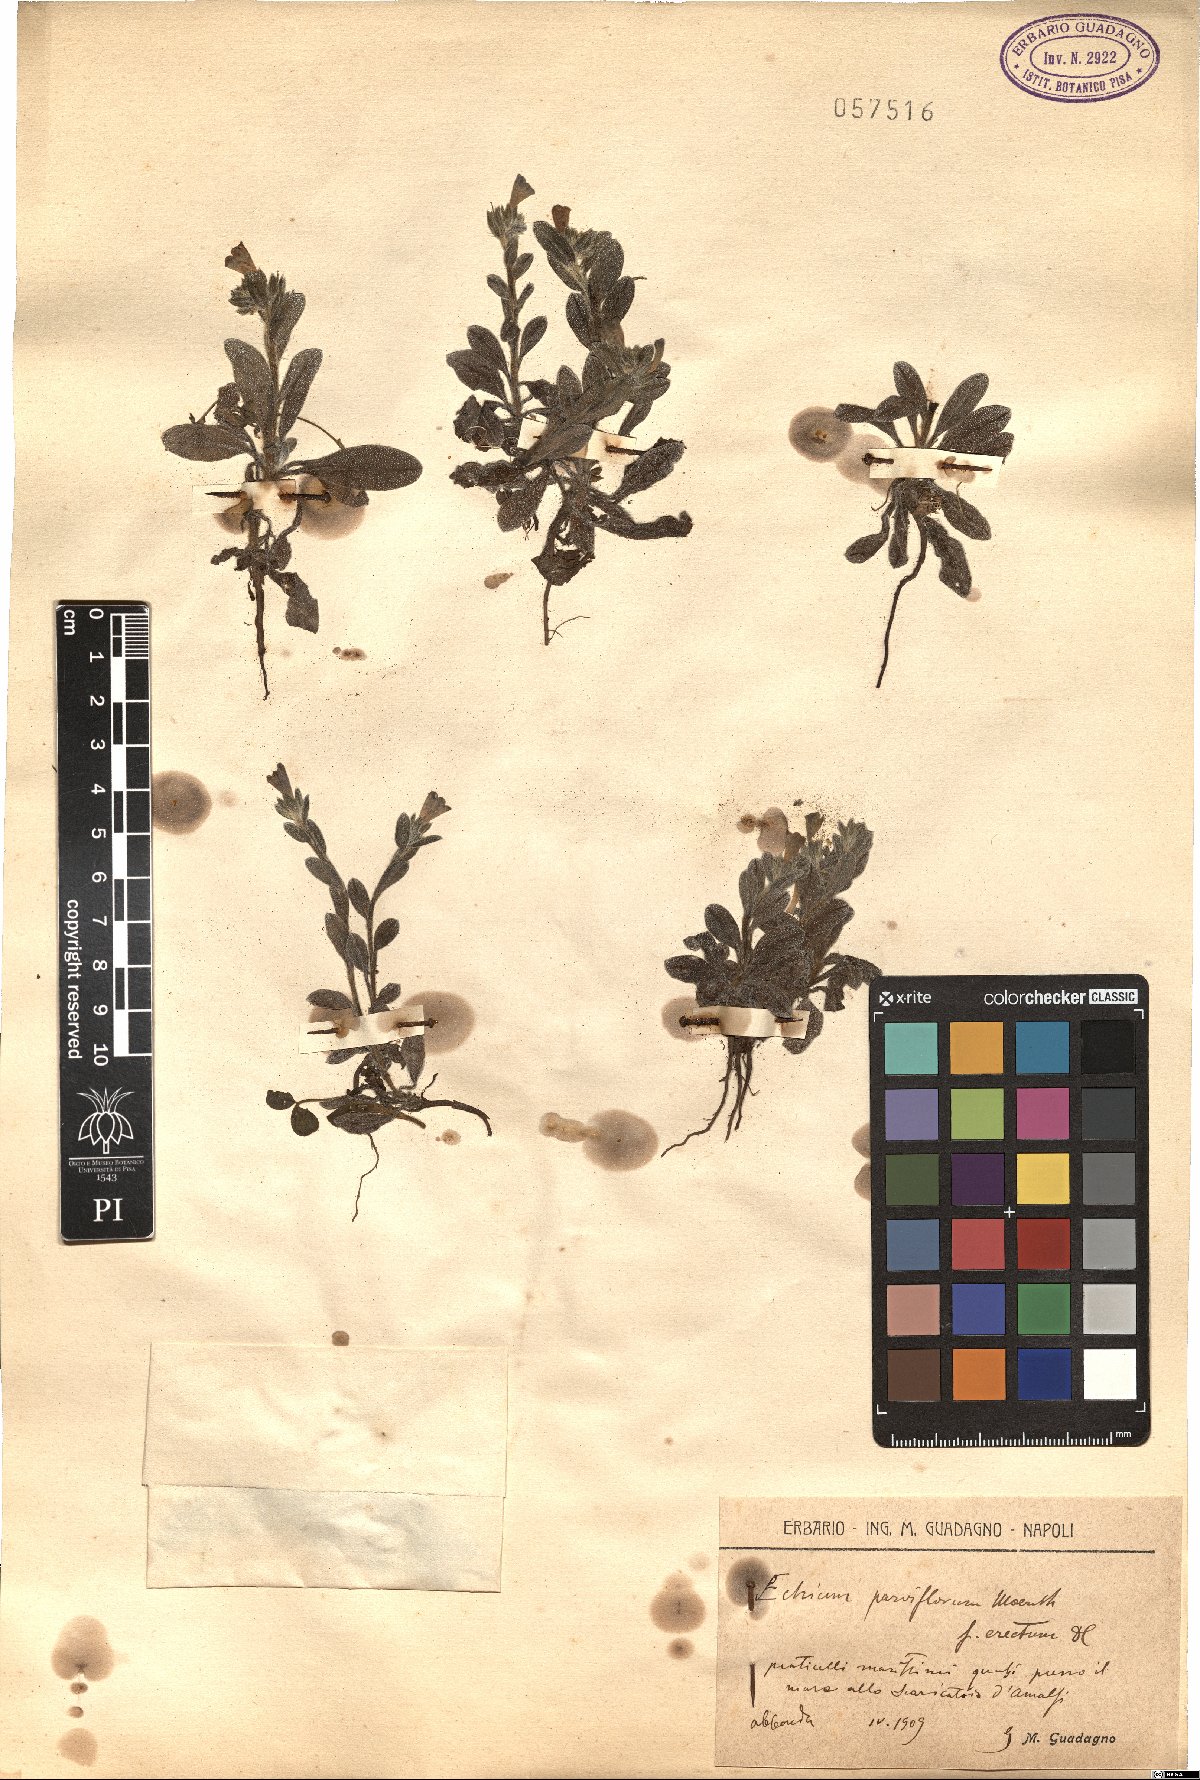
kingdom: Plantae
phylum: Tracheophyta
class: Magnoliopsida
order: Boraginales
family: Boraginaceae
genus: Echium
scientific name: Echium parviflorum
